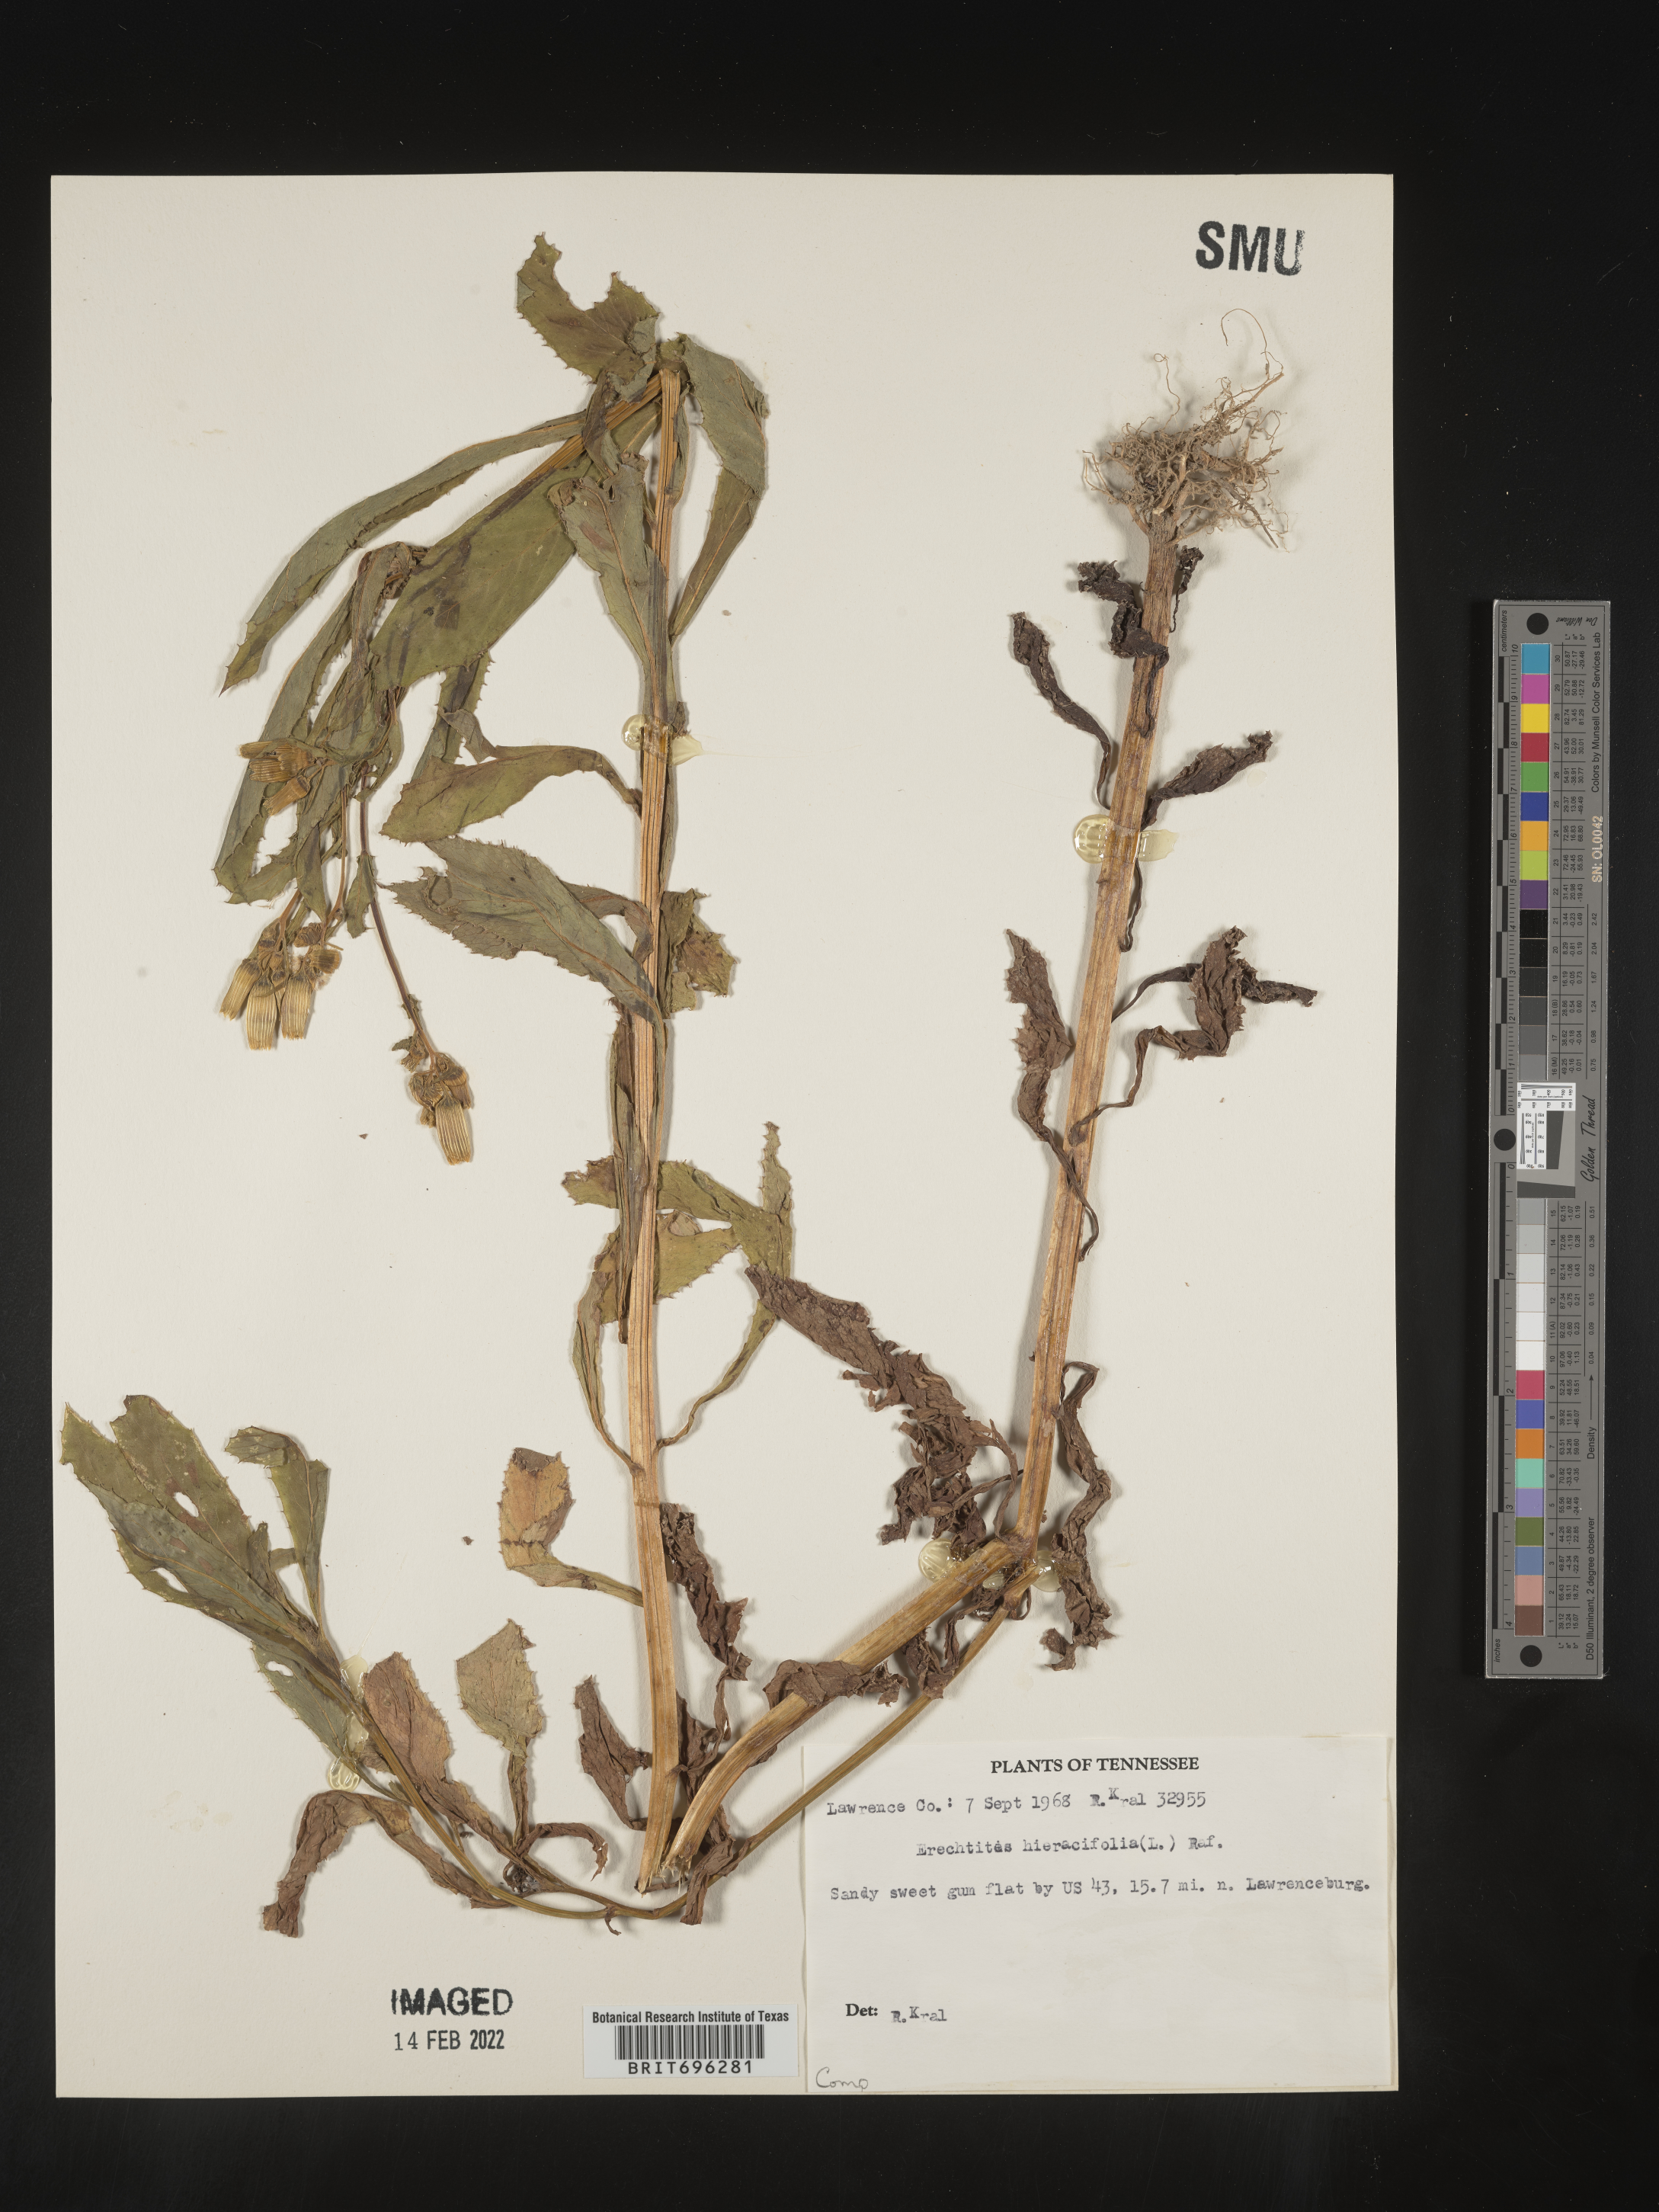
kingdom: Plantae
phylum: Tracheophyta
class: Magnoliopsida
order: Asterales
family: Asteraceae
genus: Erechtites
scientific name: Erechtites hieraciifolius
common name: American burnweed
